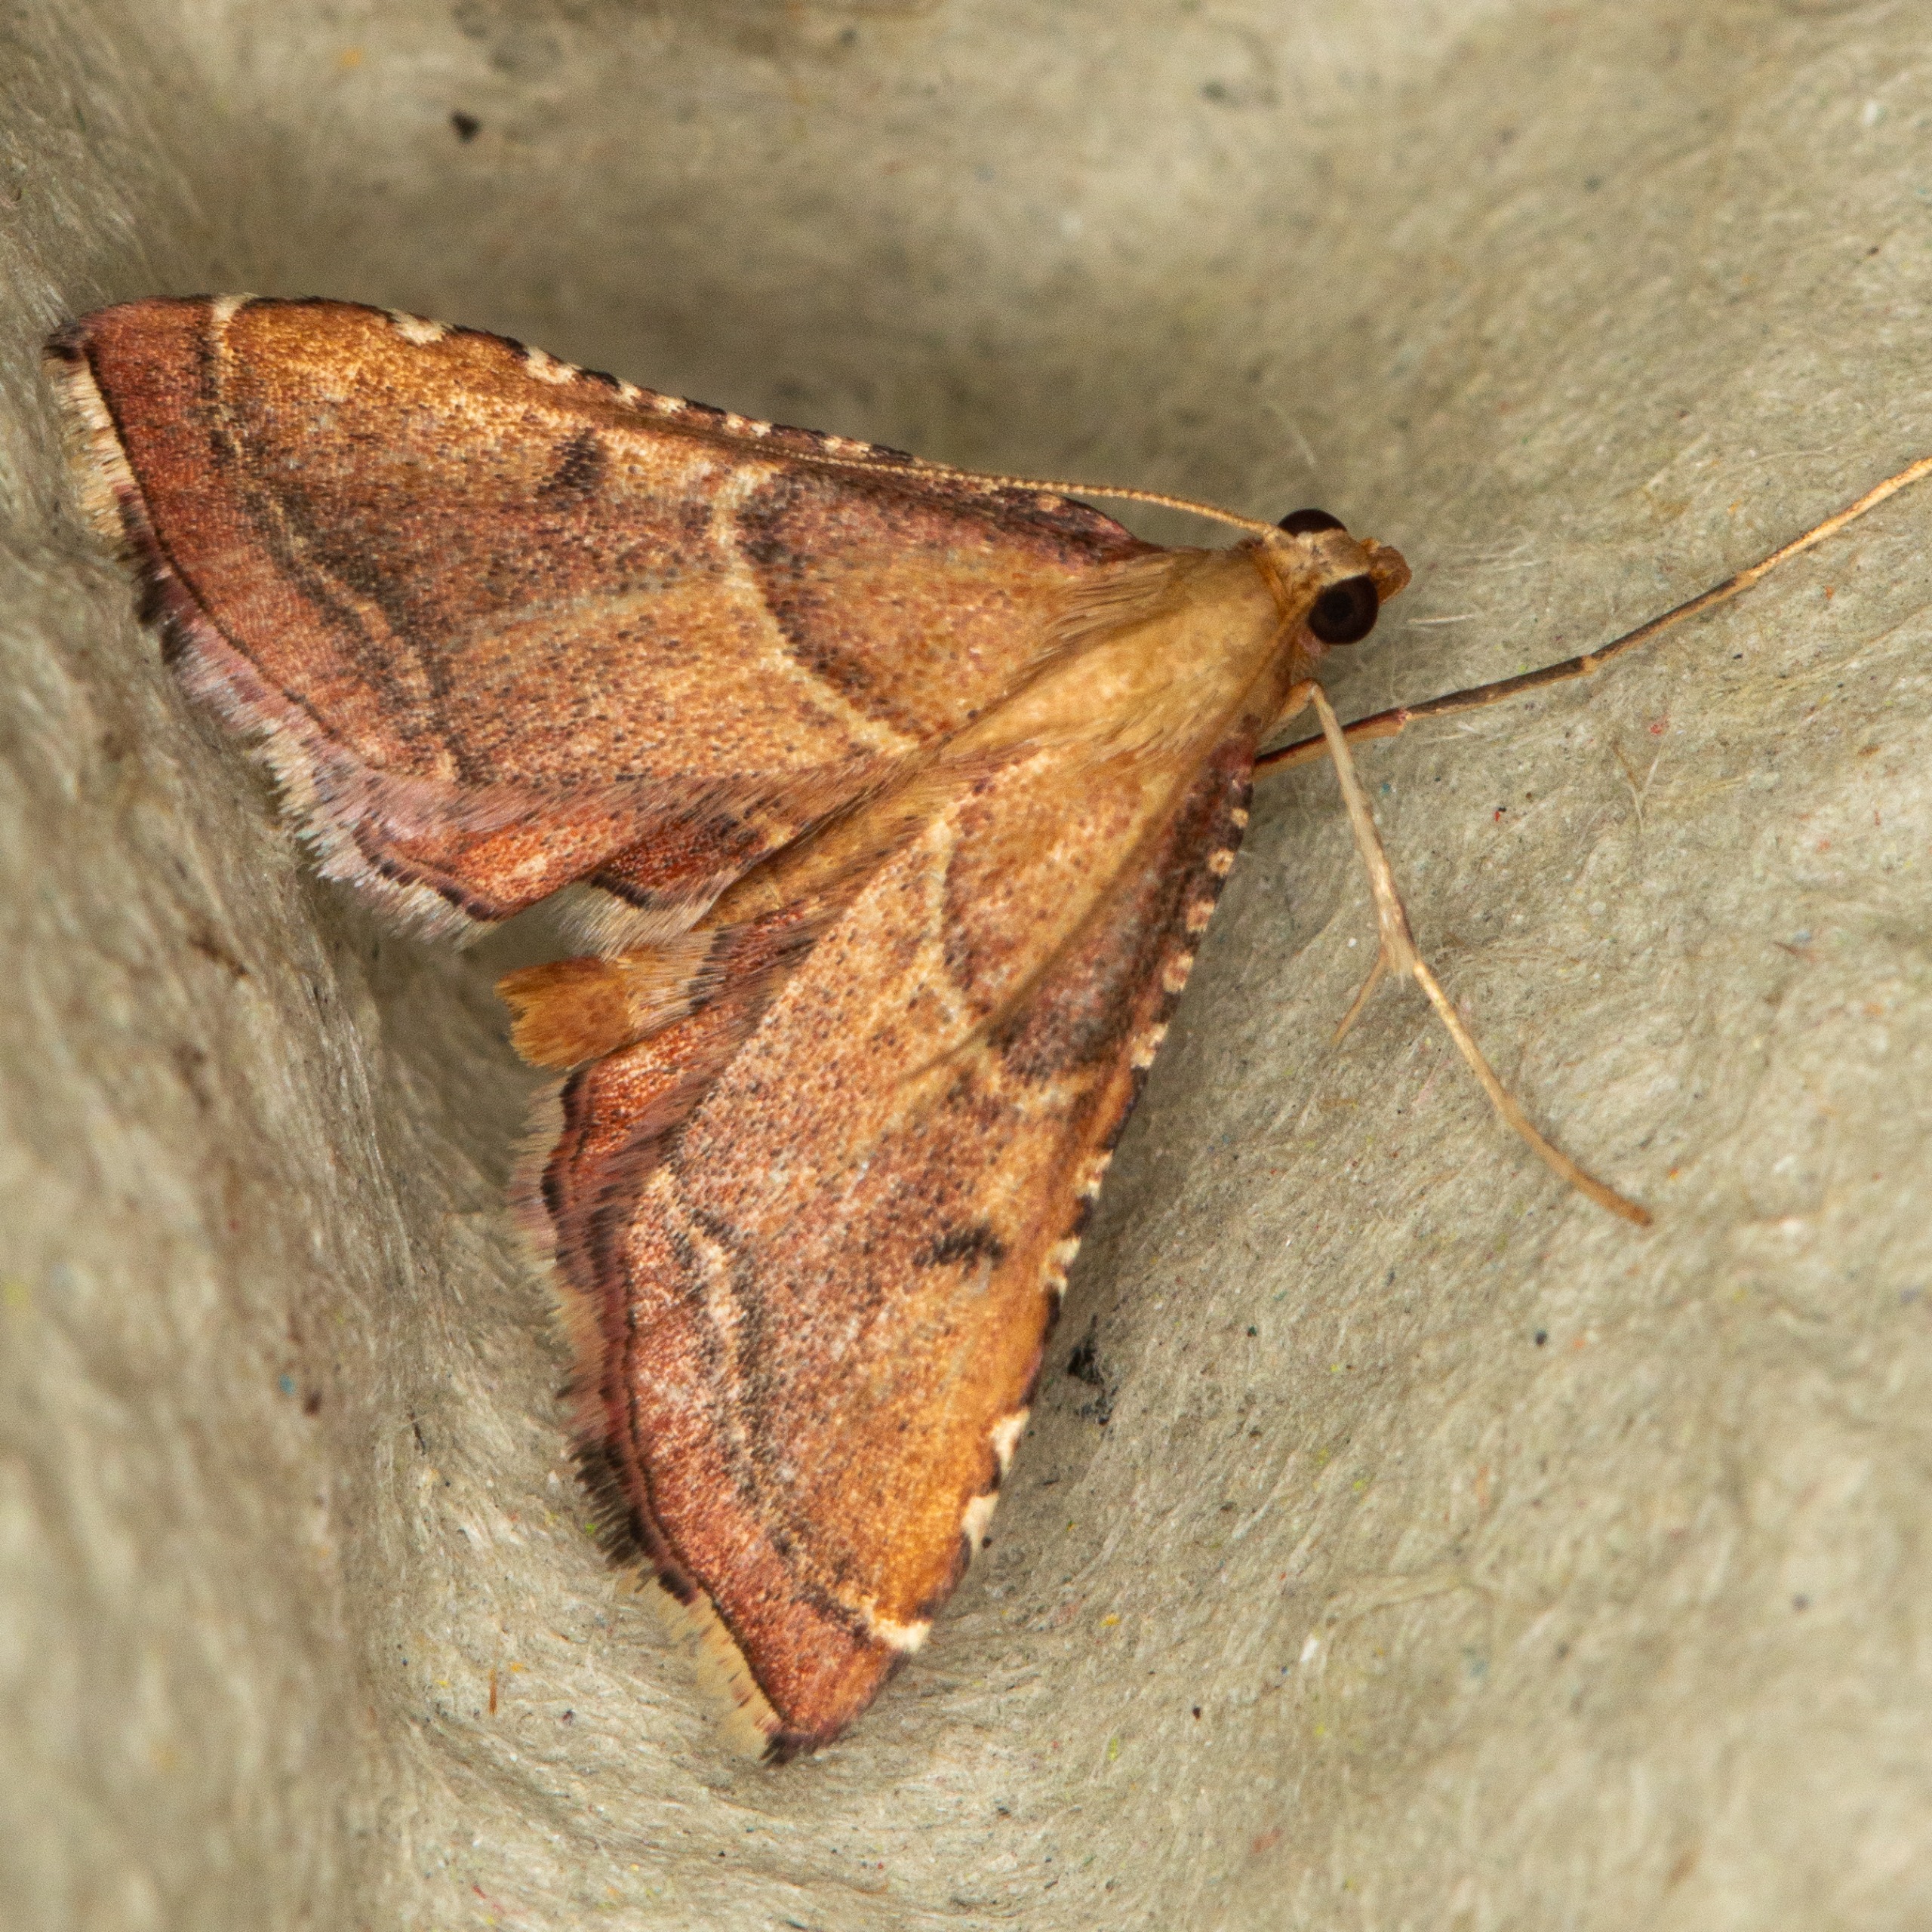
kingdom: Animalia
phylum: Arthropoda
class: Insecta
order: Lepidoptera
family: Pyralidae
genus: Endotricha
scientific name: Endotricha flammealis
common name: Løvkrathalvmøl
